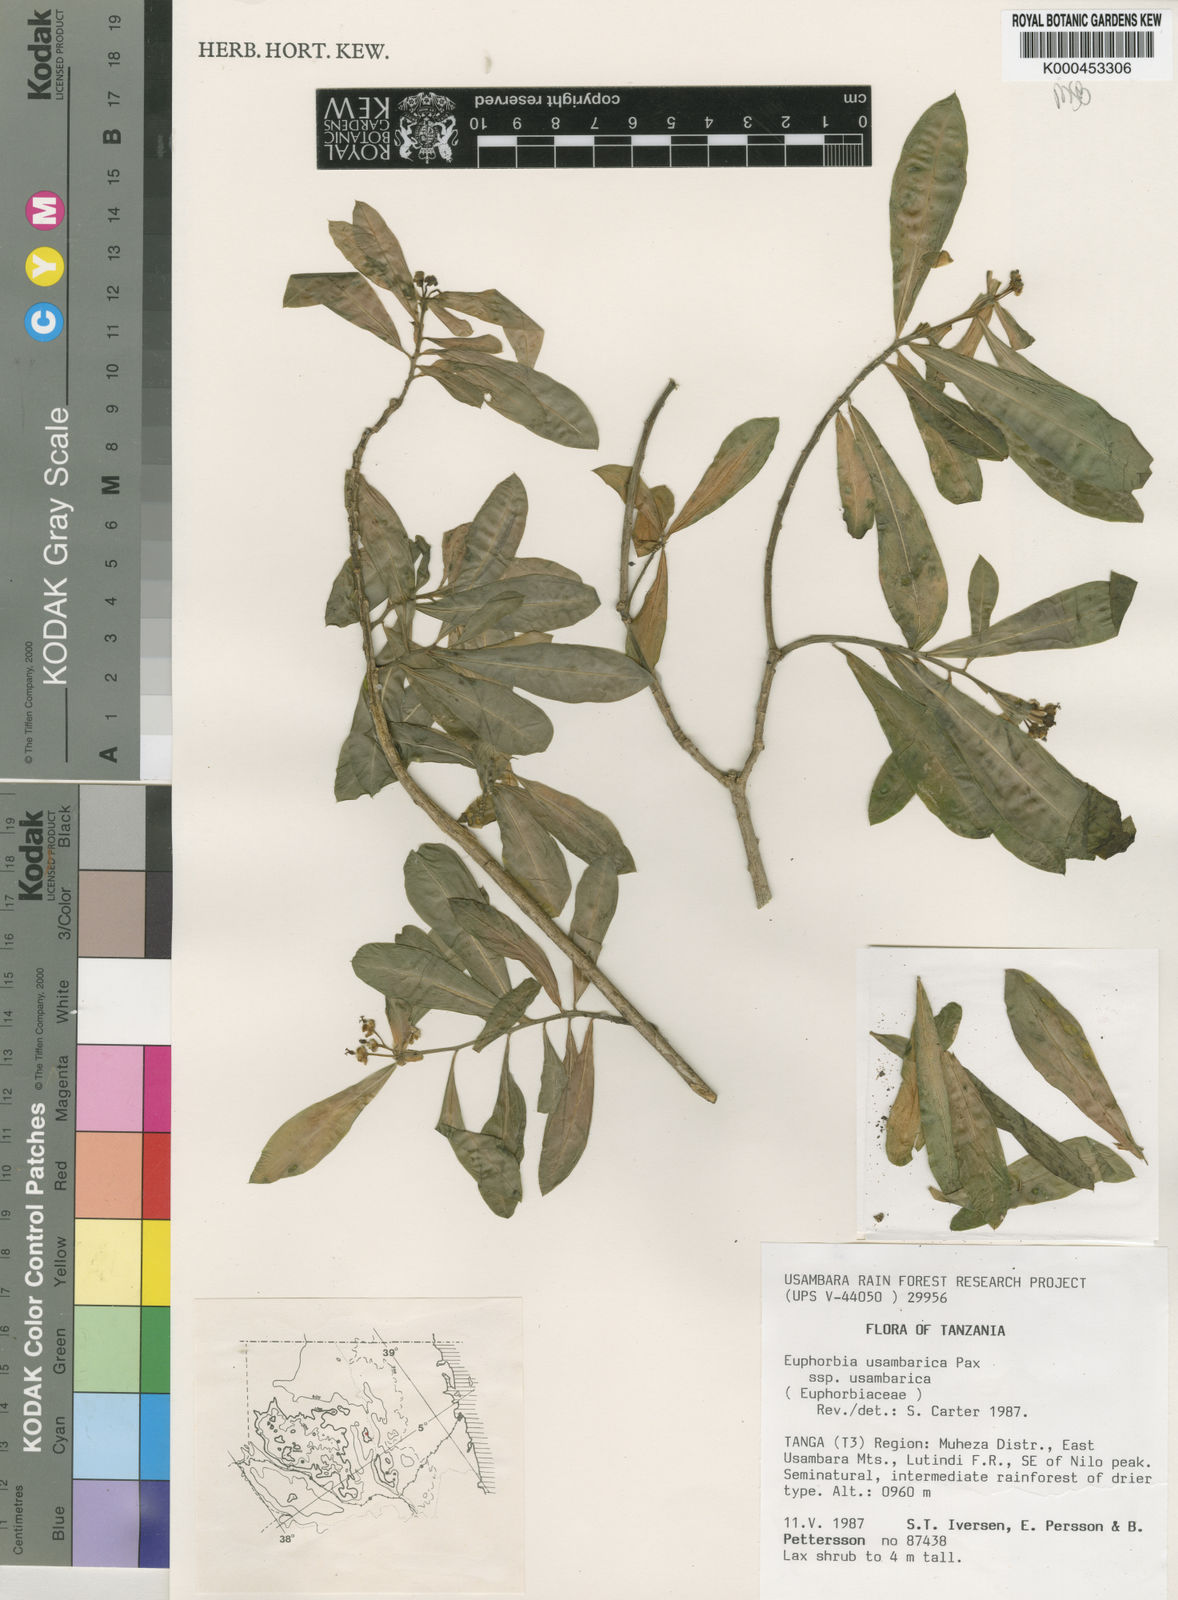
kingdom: Plantae
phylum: Tracheophyta
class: Magnoliopsida
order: Malpighiales
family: Euphorbiaceae
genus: Euphorbia
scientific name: Euphorbia usambarica
